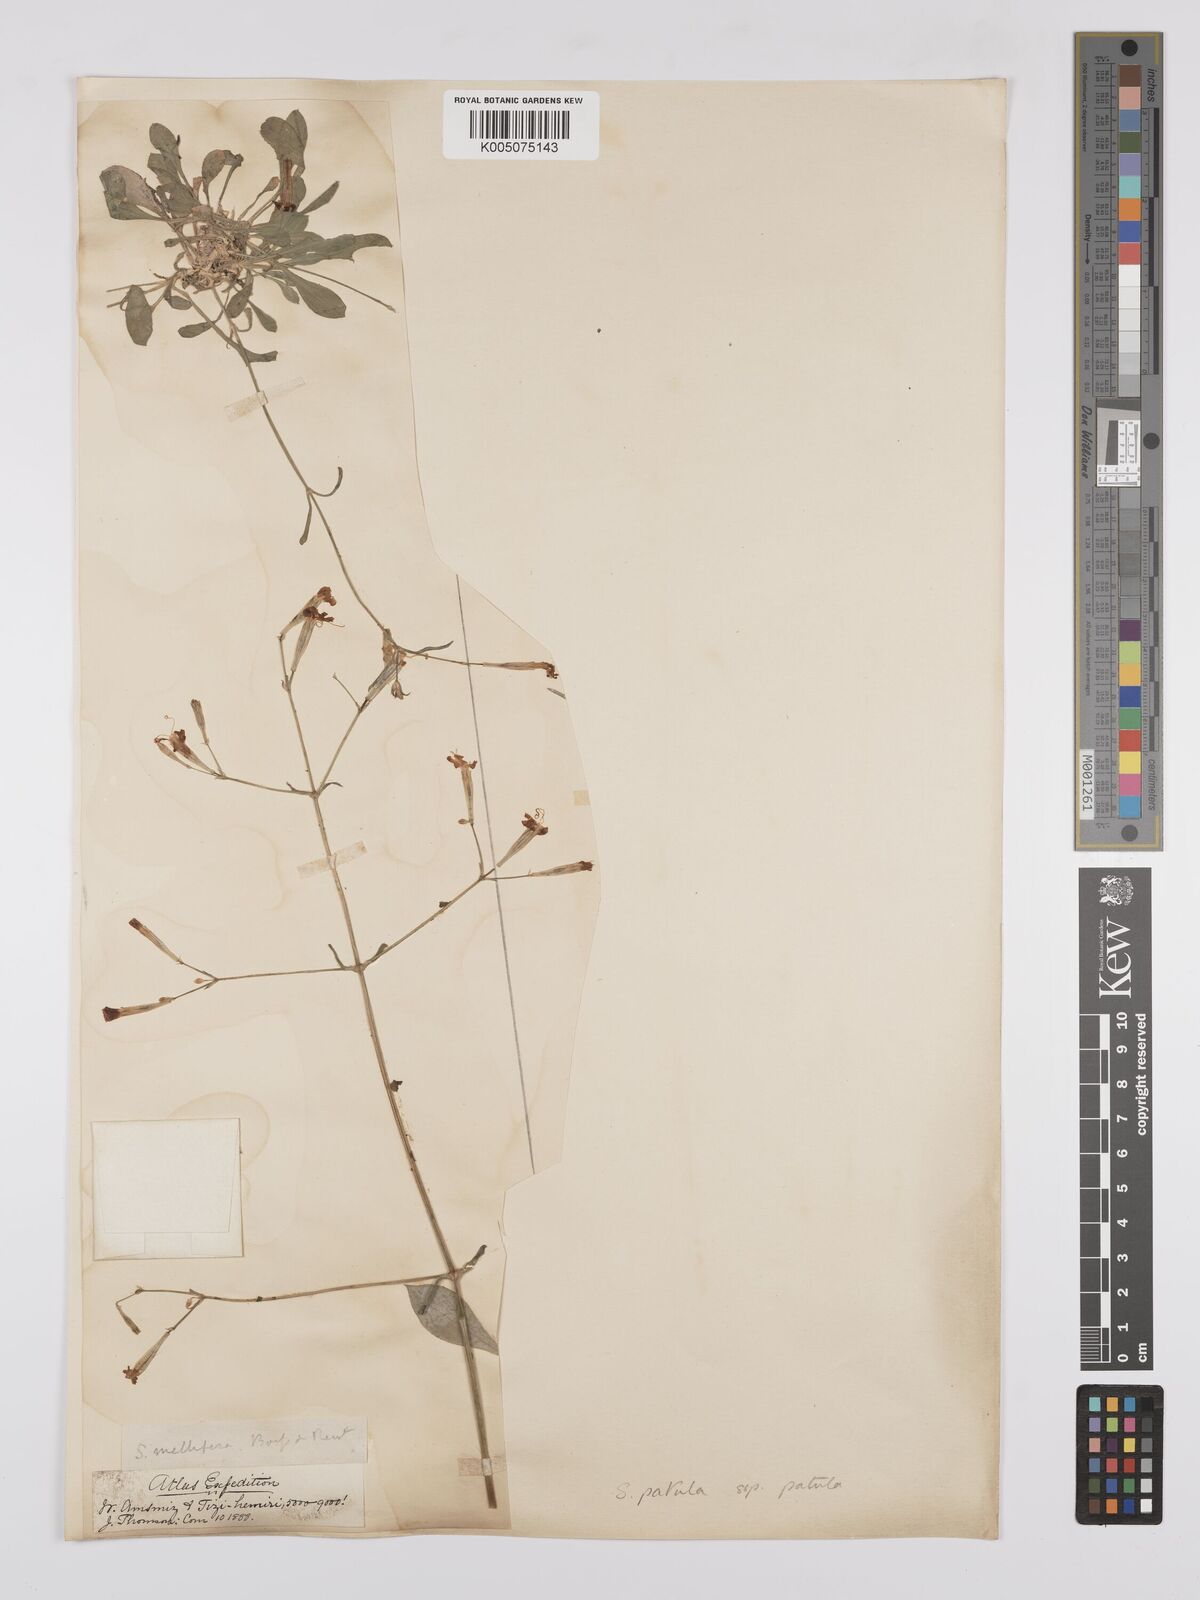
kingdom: Plantae
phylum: Tracheophyta
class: Magnoliopsida
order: Caryophyllales
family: Caryophyllaceae
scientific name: Caryophyllaceae
